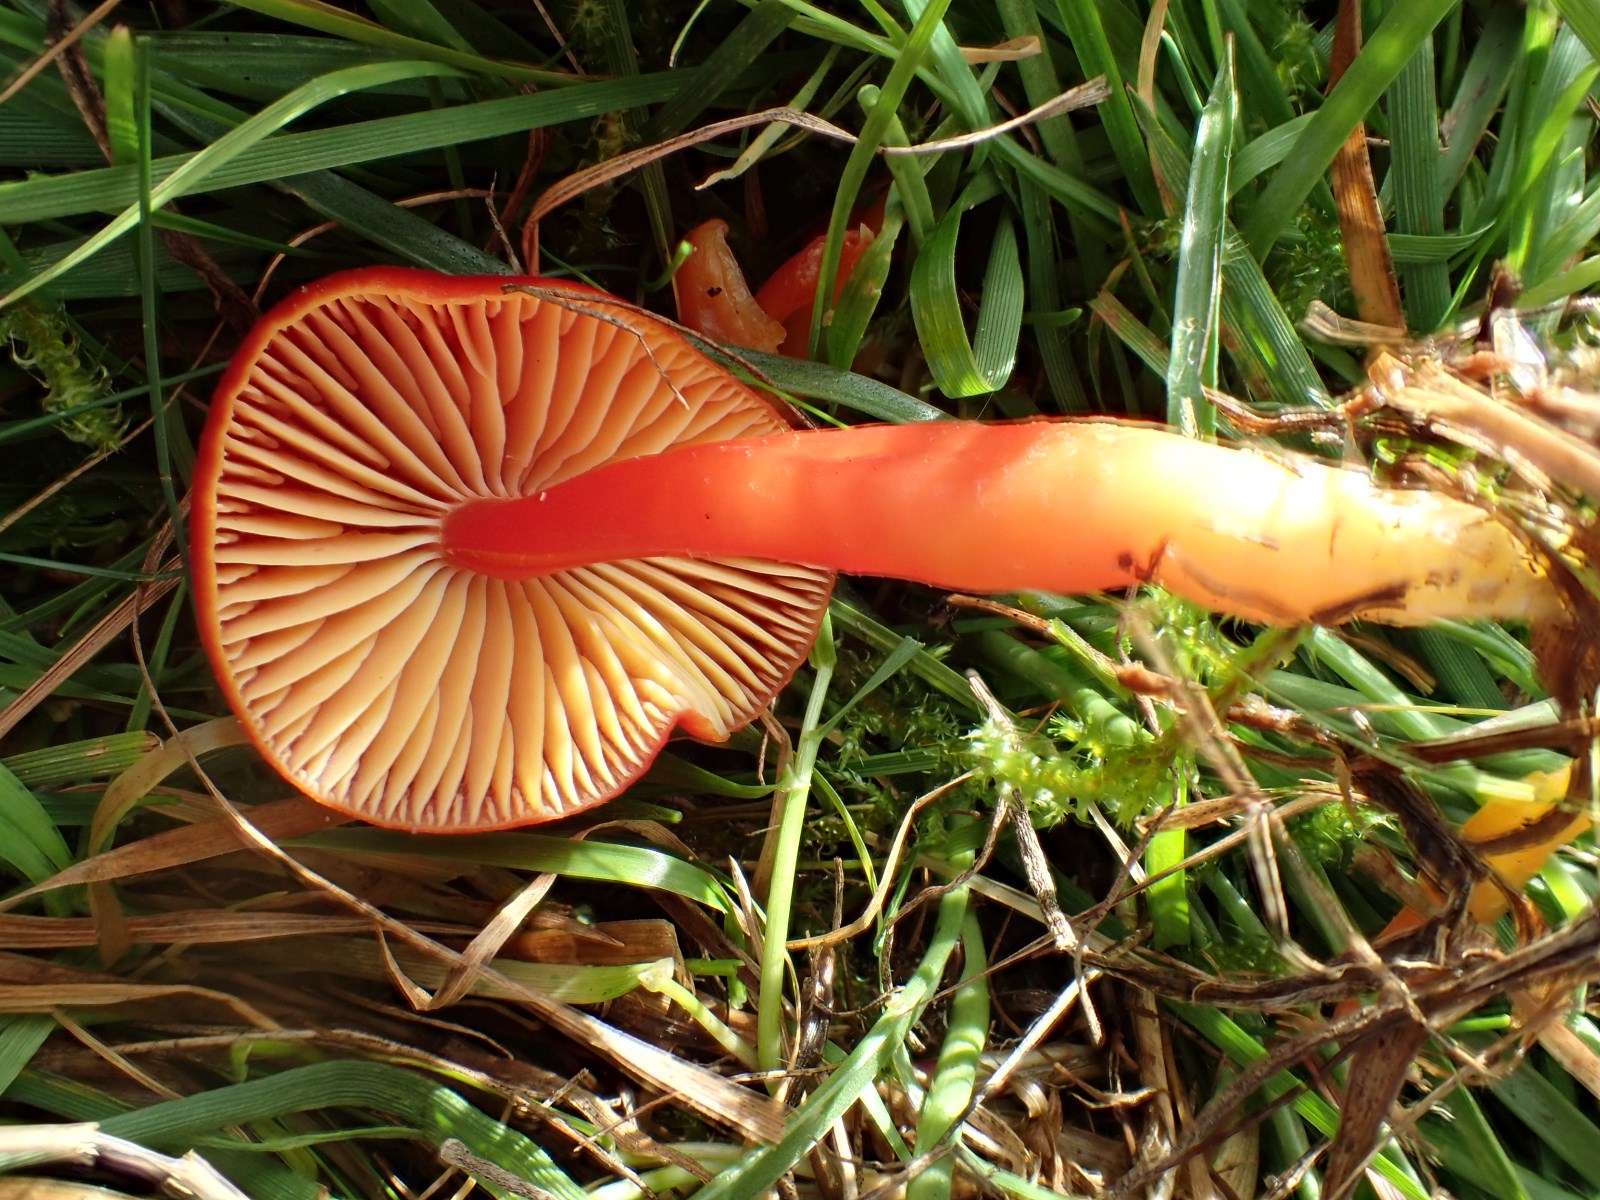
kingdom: Fungi
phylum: Basidiomycota
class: Agaricomycetes
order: Agaricales
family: Hygrophoraceae
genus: Hygrocybe
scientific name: Hygrocybe coccinea
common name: cinnober-vokshat
